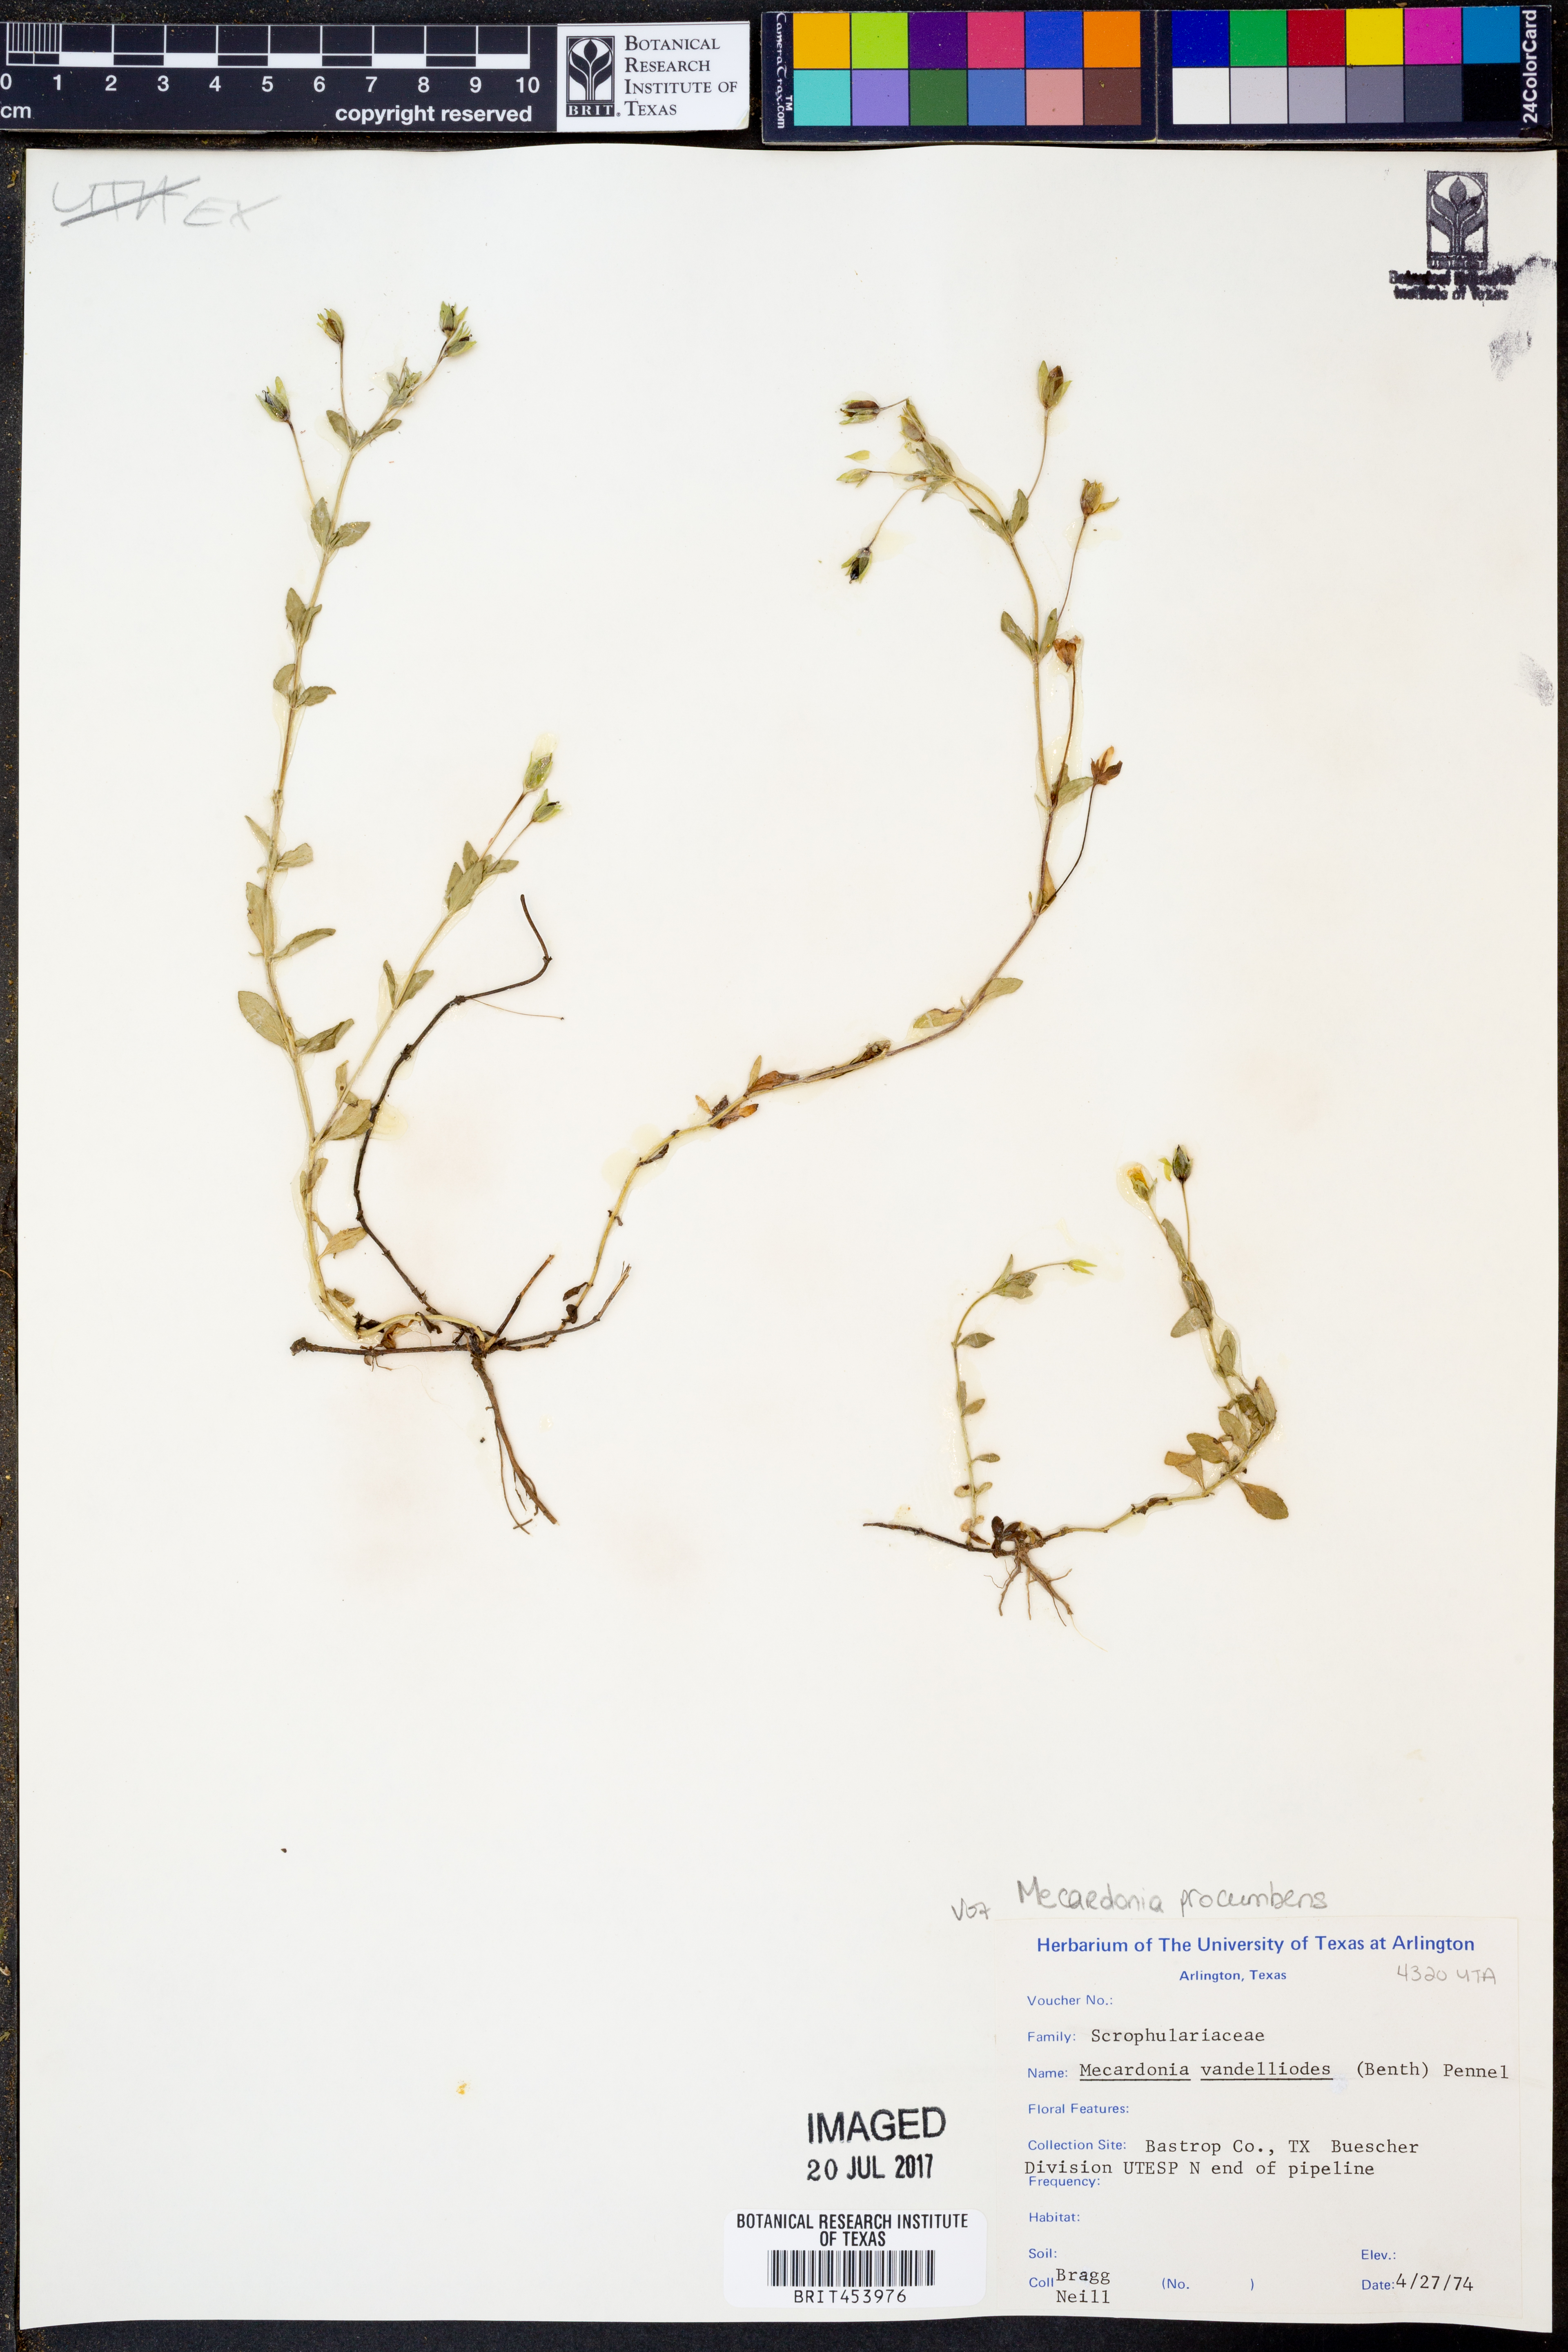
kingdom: Plantae
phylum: Tracheophyta
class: Magnoliopsida
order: Lamiales
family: Plantaginaceae
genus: Mecardonia
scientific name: Mecardonia procumbens
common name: Baby jump-up
